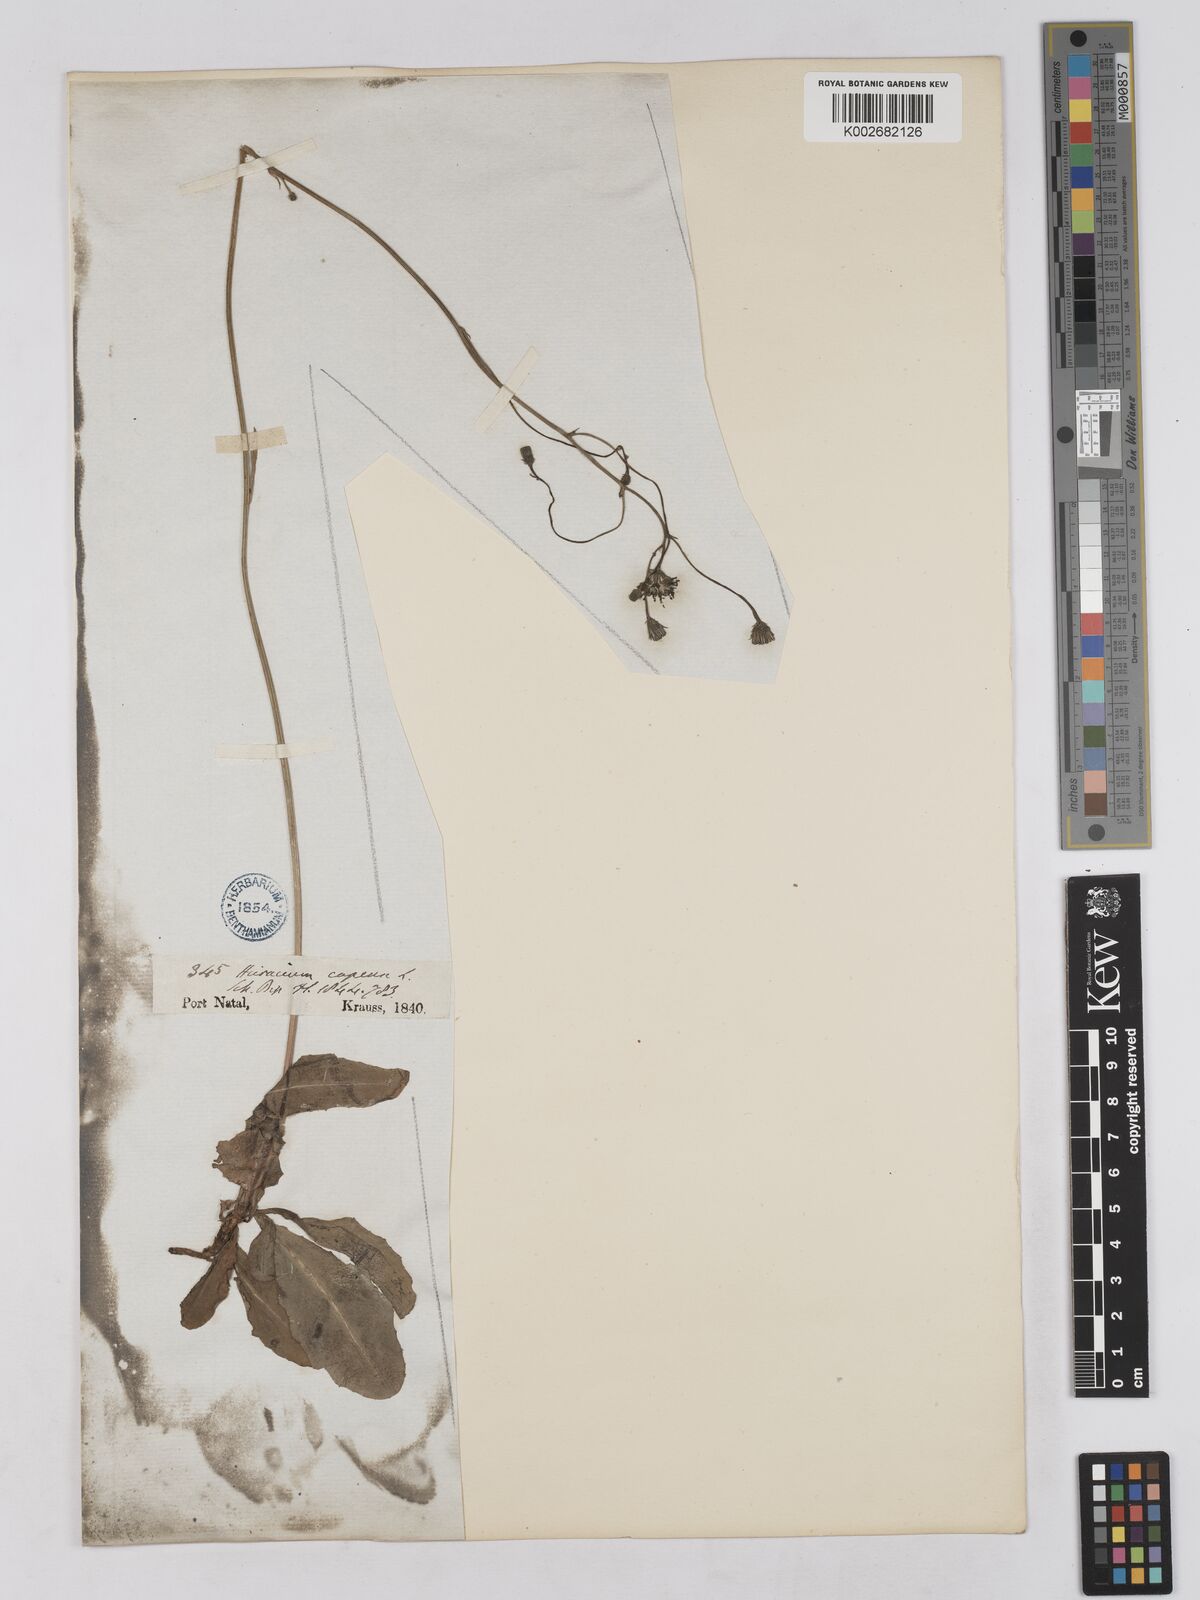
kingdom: Plantae
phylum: Tracheophyta
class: Magnoliopsida
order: Asterales
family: Asteraceae
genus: Tolpis
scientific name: Tolpis capensis
